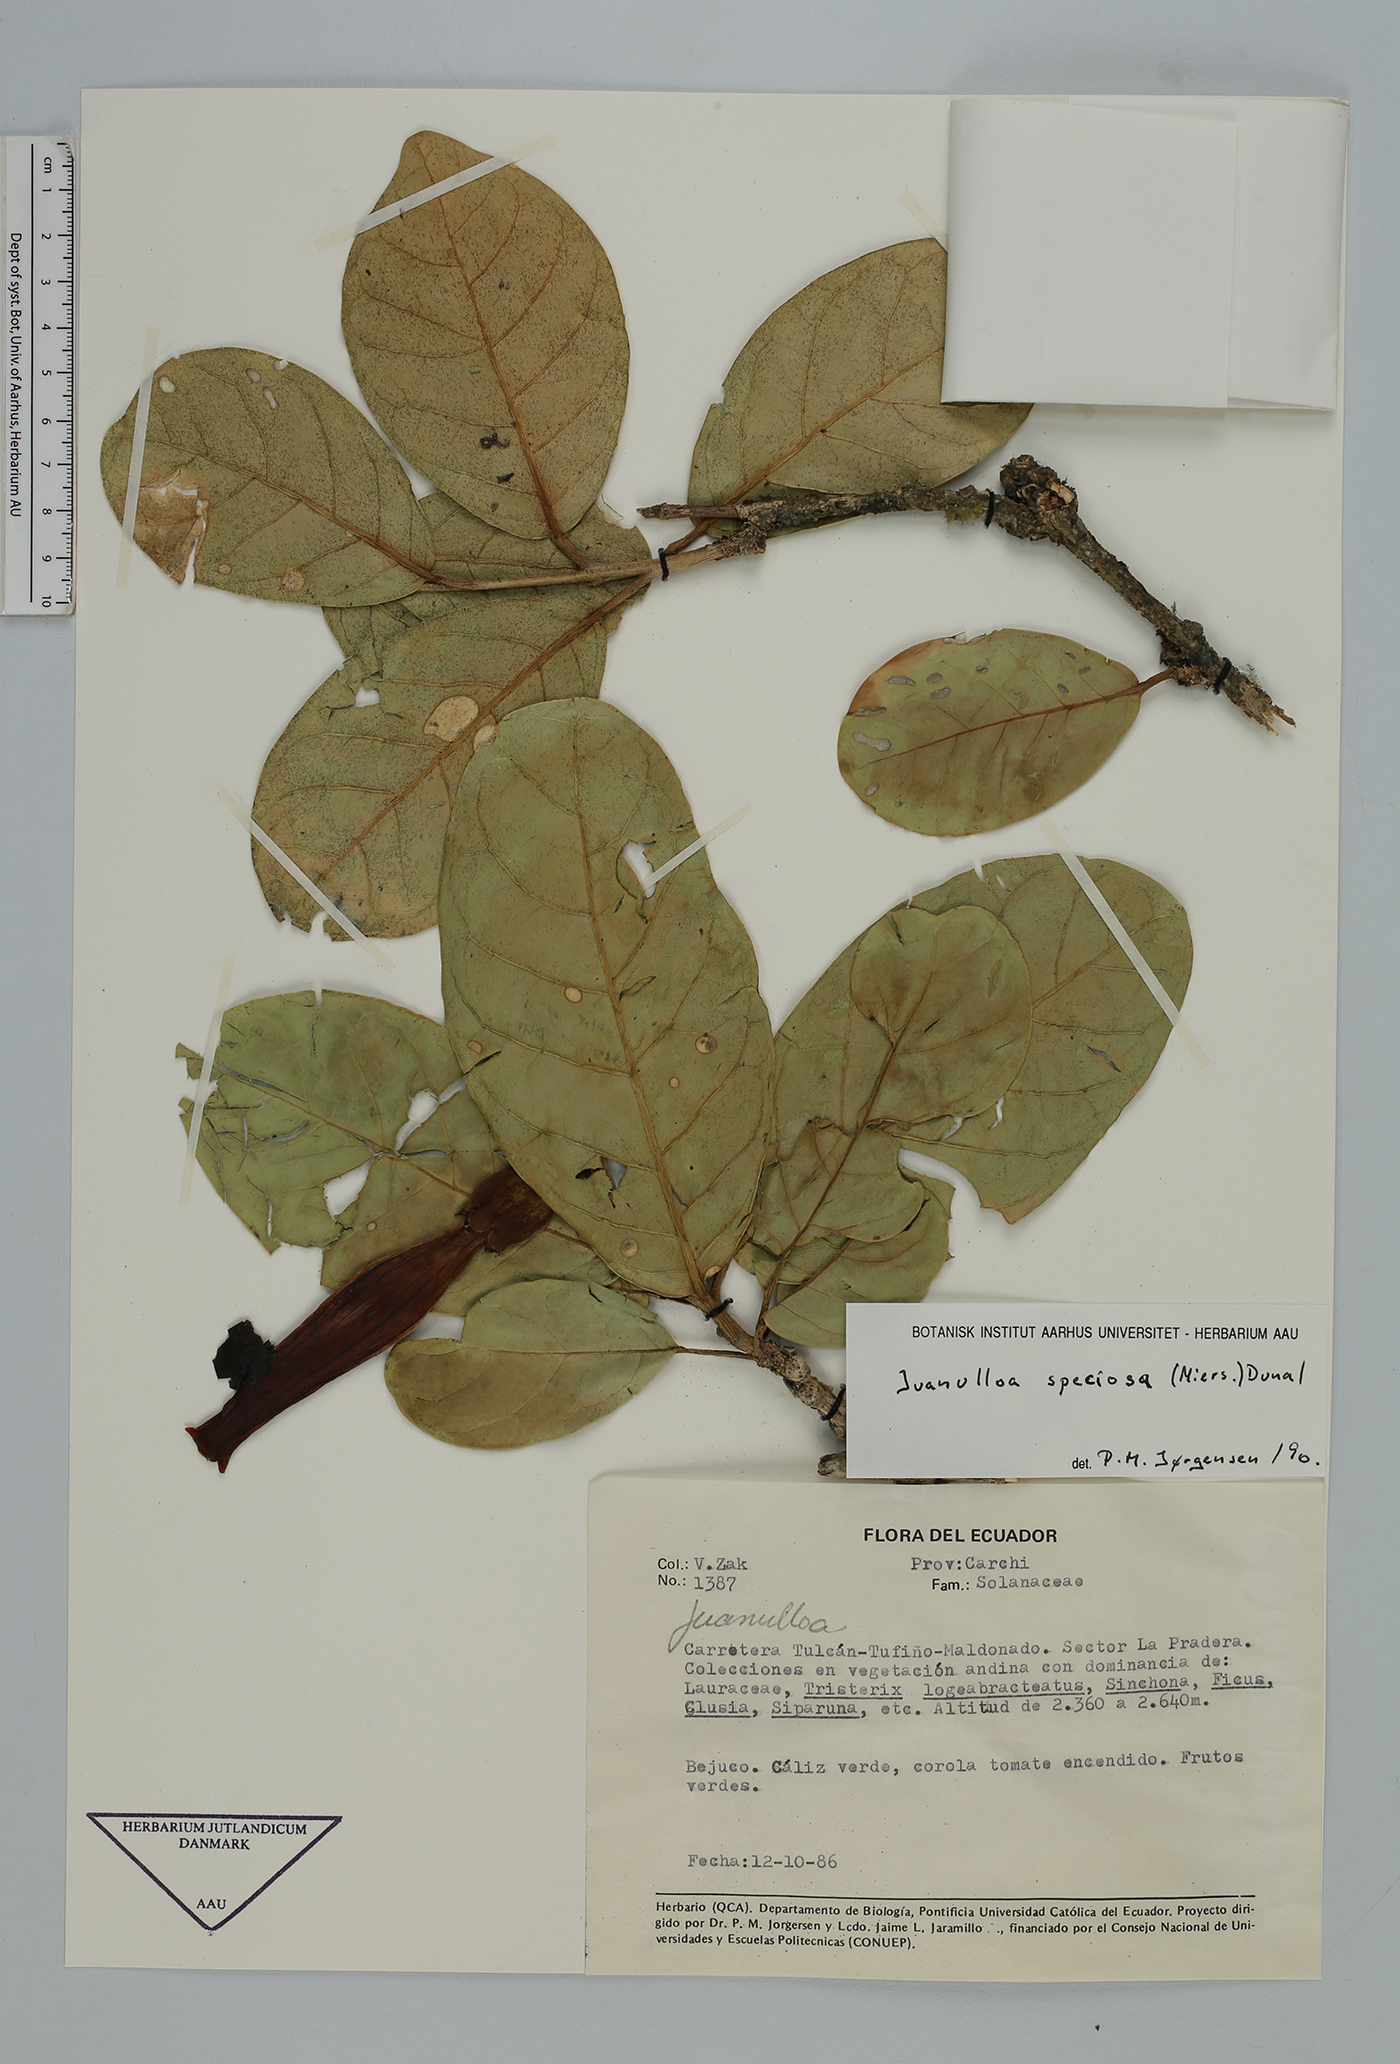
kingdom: Plantae
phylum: Tracheophyta
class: Magnoliopsida
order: Solanales
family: Solanaceae
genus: Juanulloa
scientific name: Juanulloa speciosa
